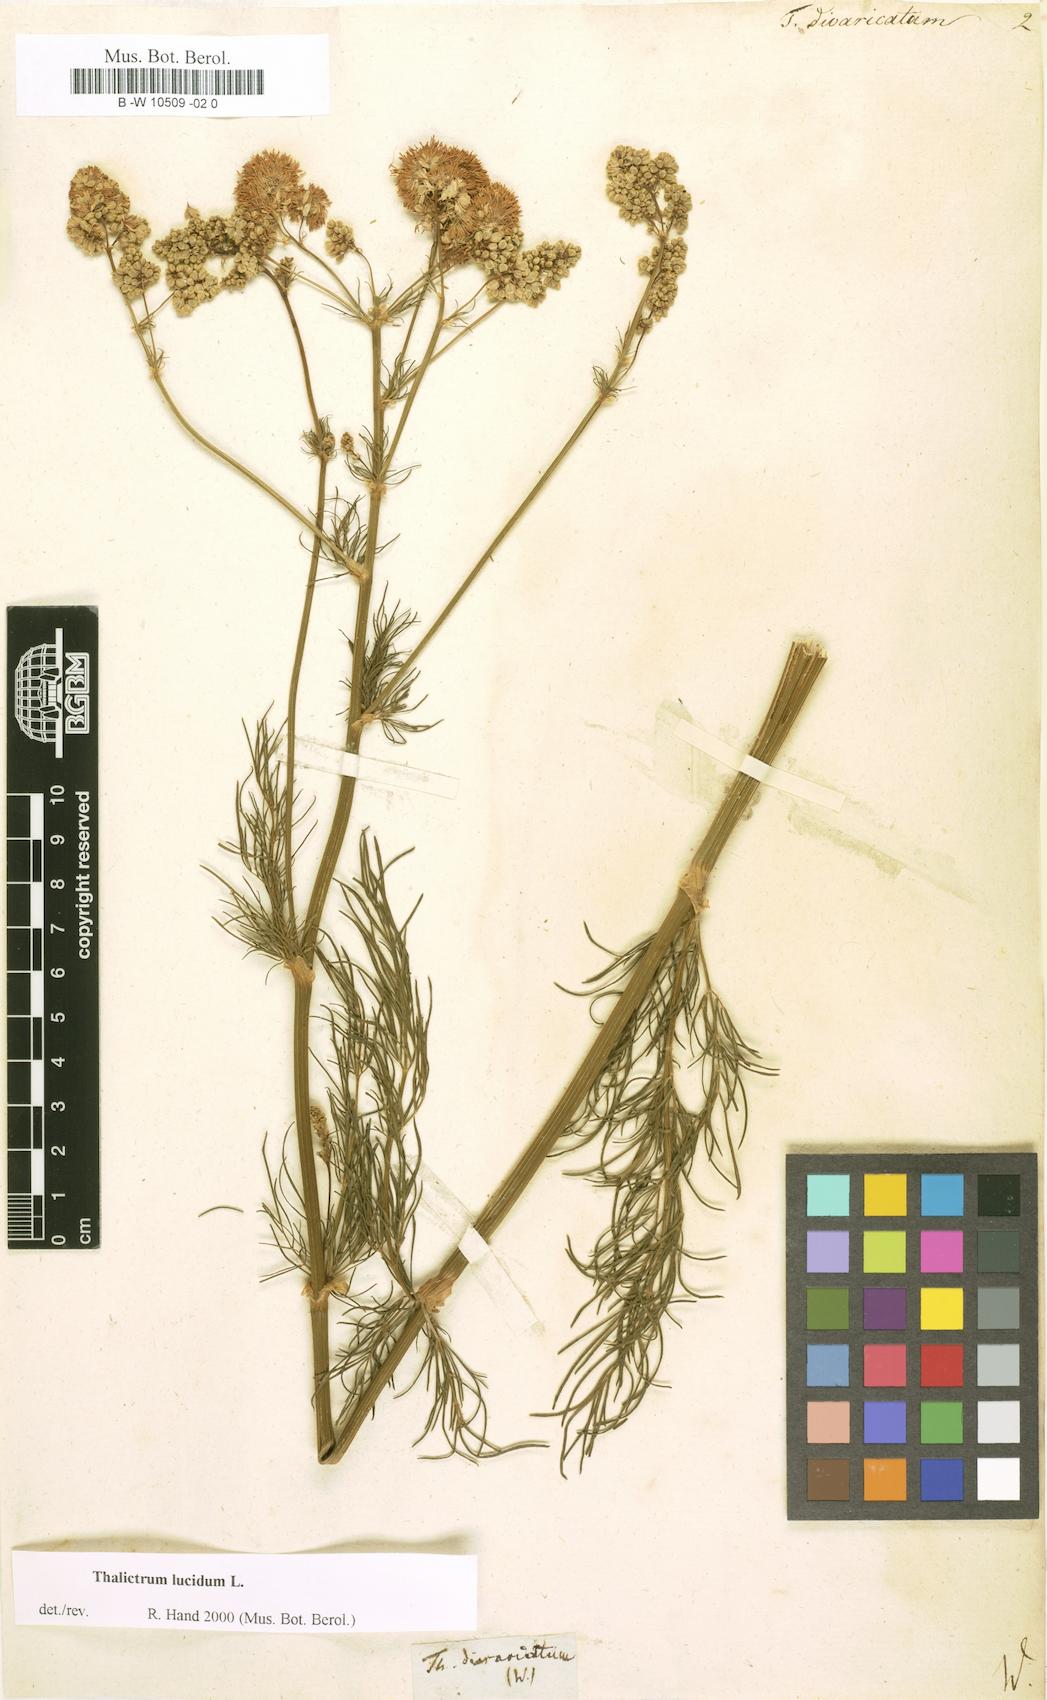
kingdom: Plantae
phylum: Tracheophyta
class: Magnoliopsida
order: Ranunculales
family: Ranunculaceae
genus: Thalictrum
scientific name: Thalictrum
